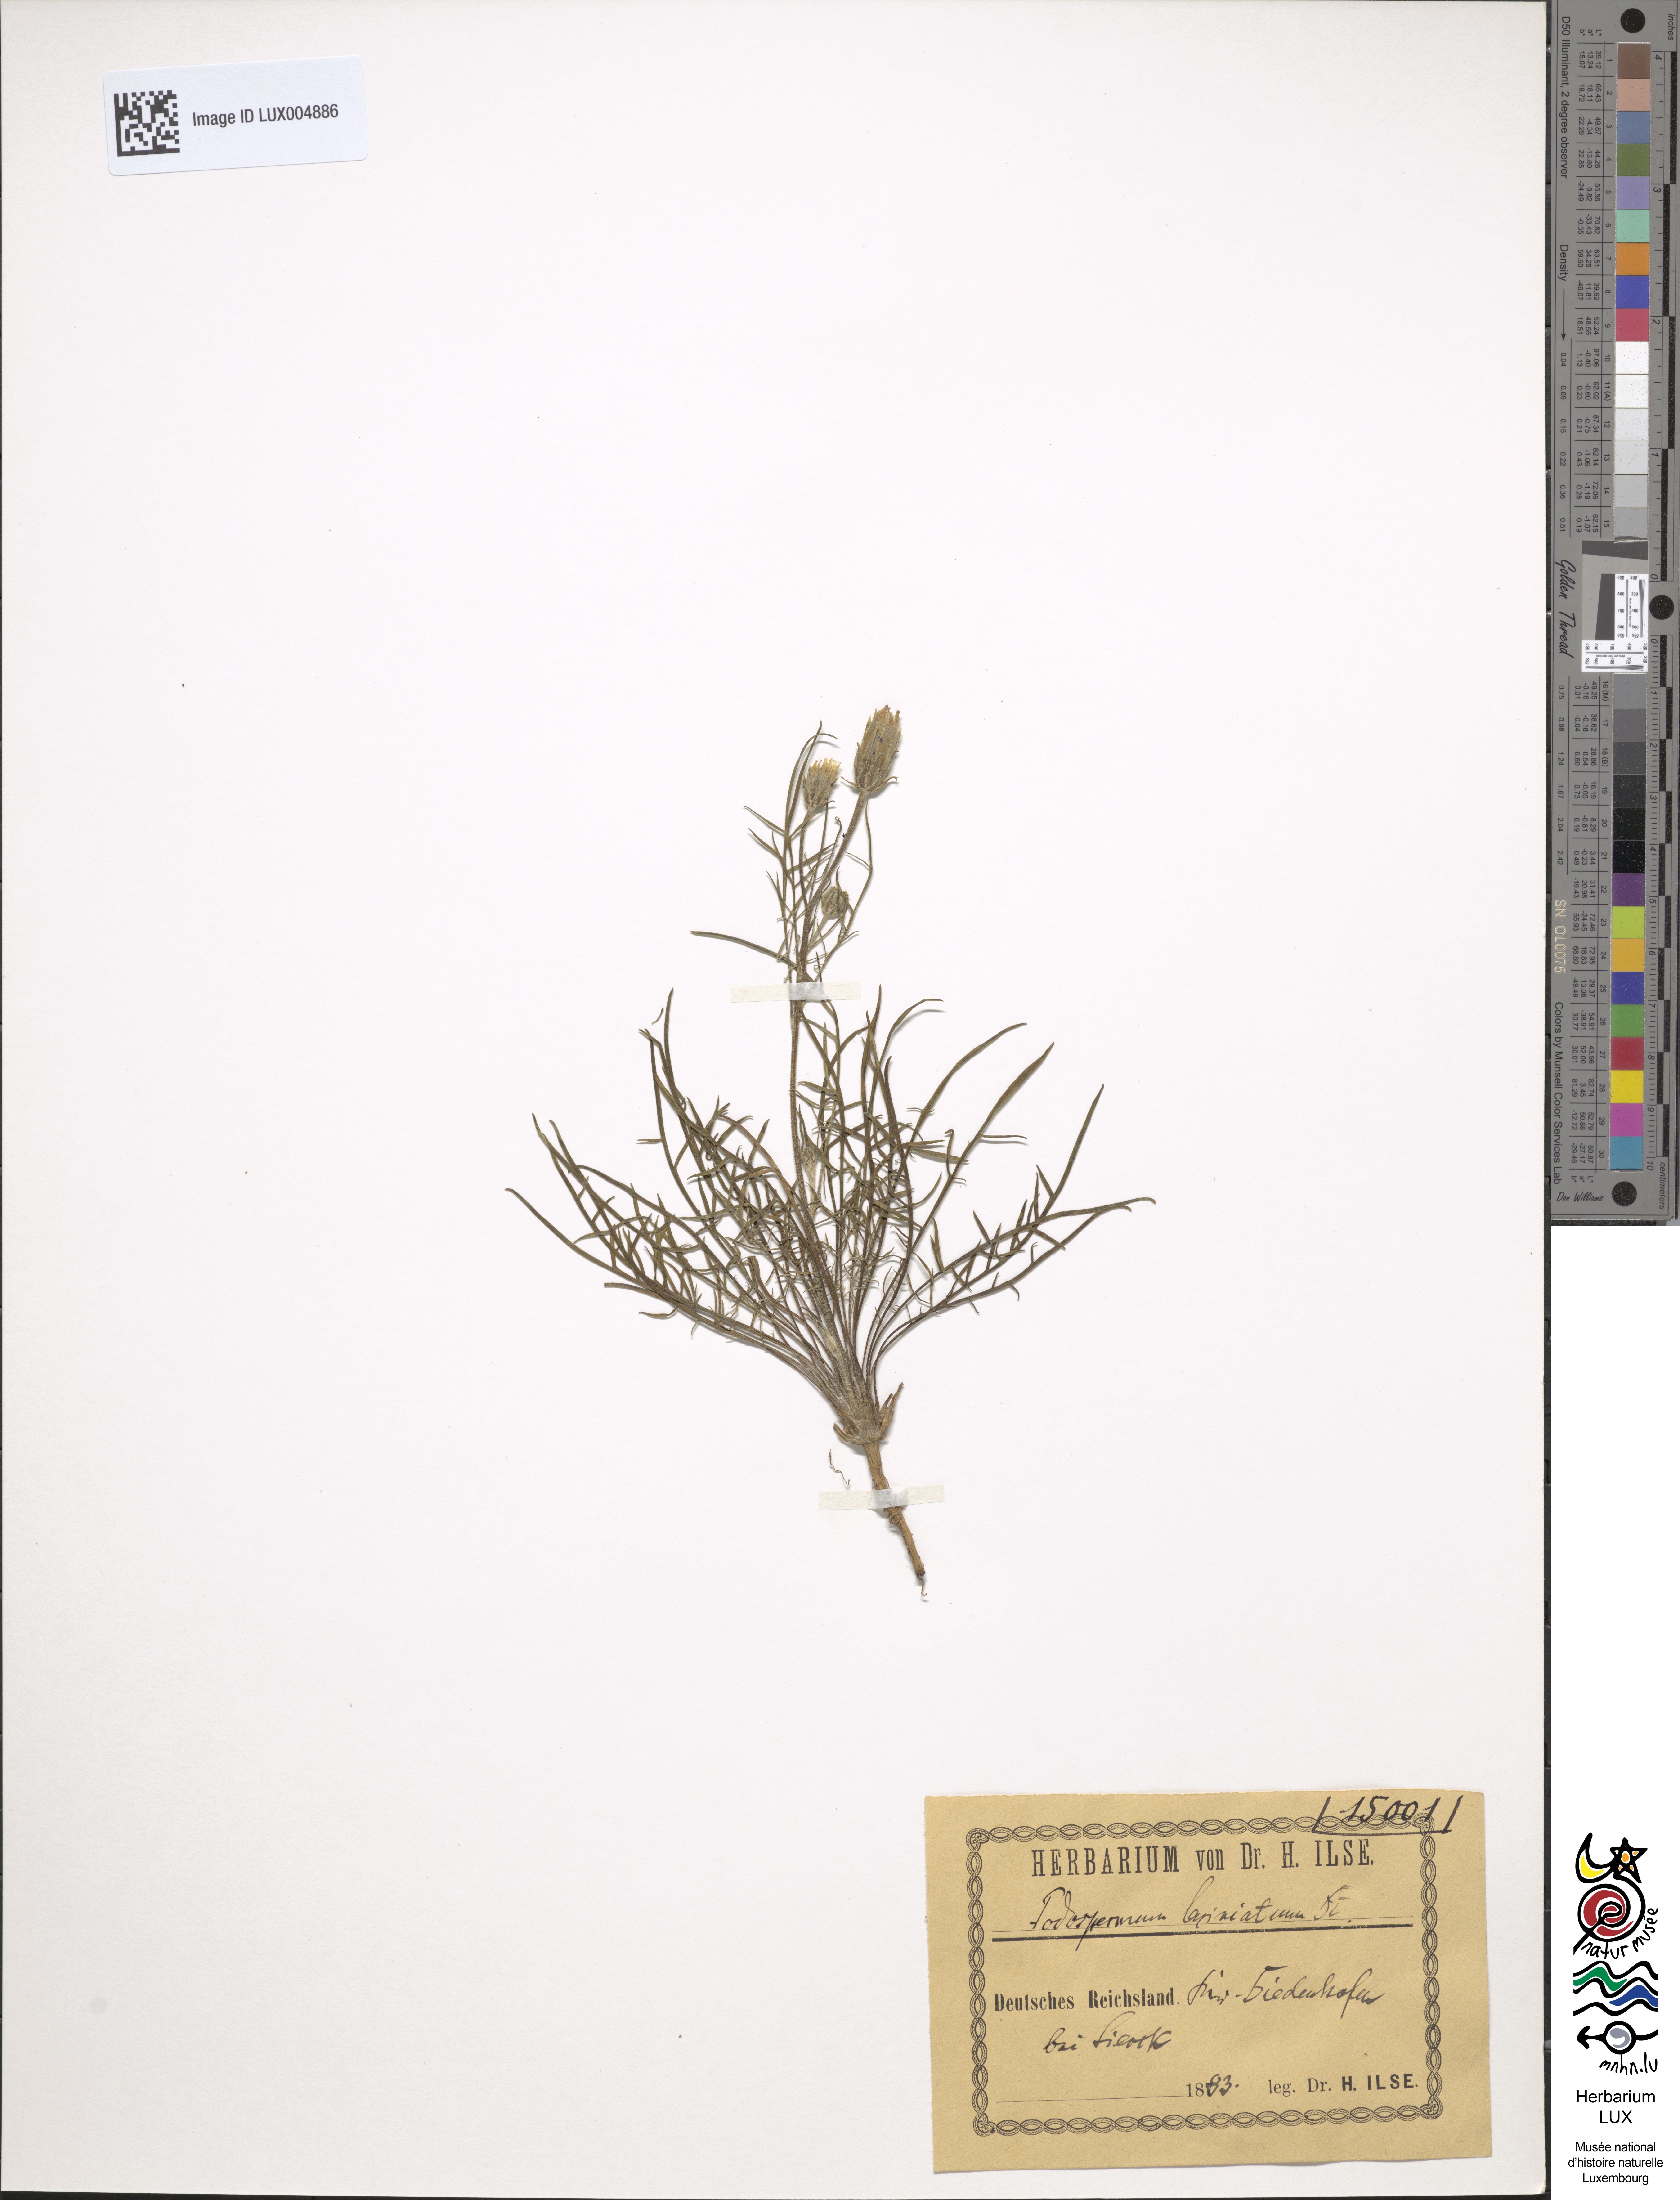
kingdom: Plantae
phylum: Tracheophyta
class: Magnoliopsida
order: Asterales
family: Asteraceae
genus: Scorzonera
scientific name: Scorzonera laciniata
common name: Cutleaf vipergrass
